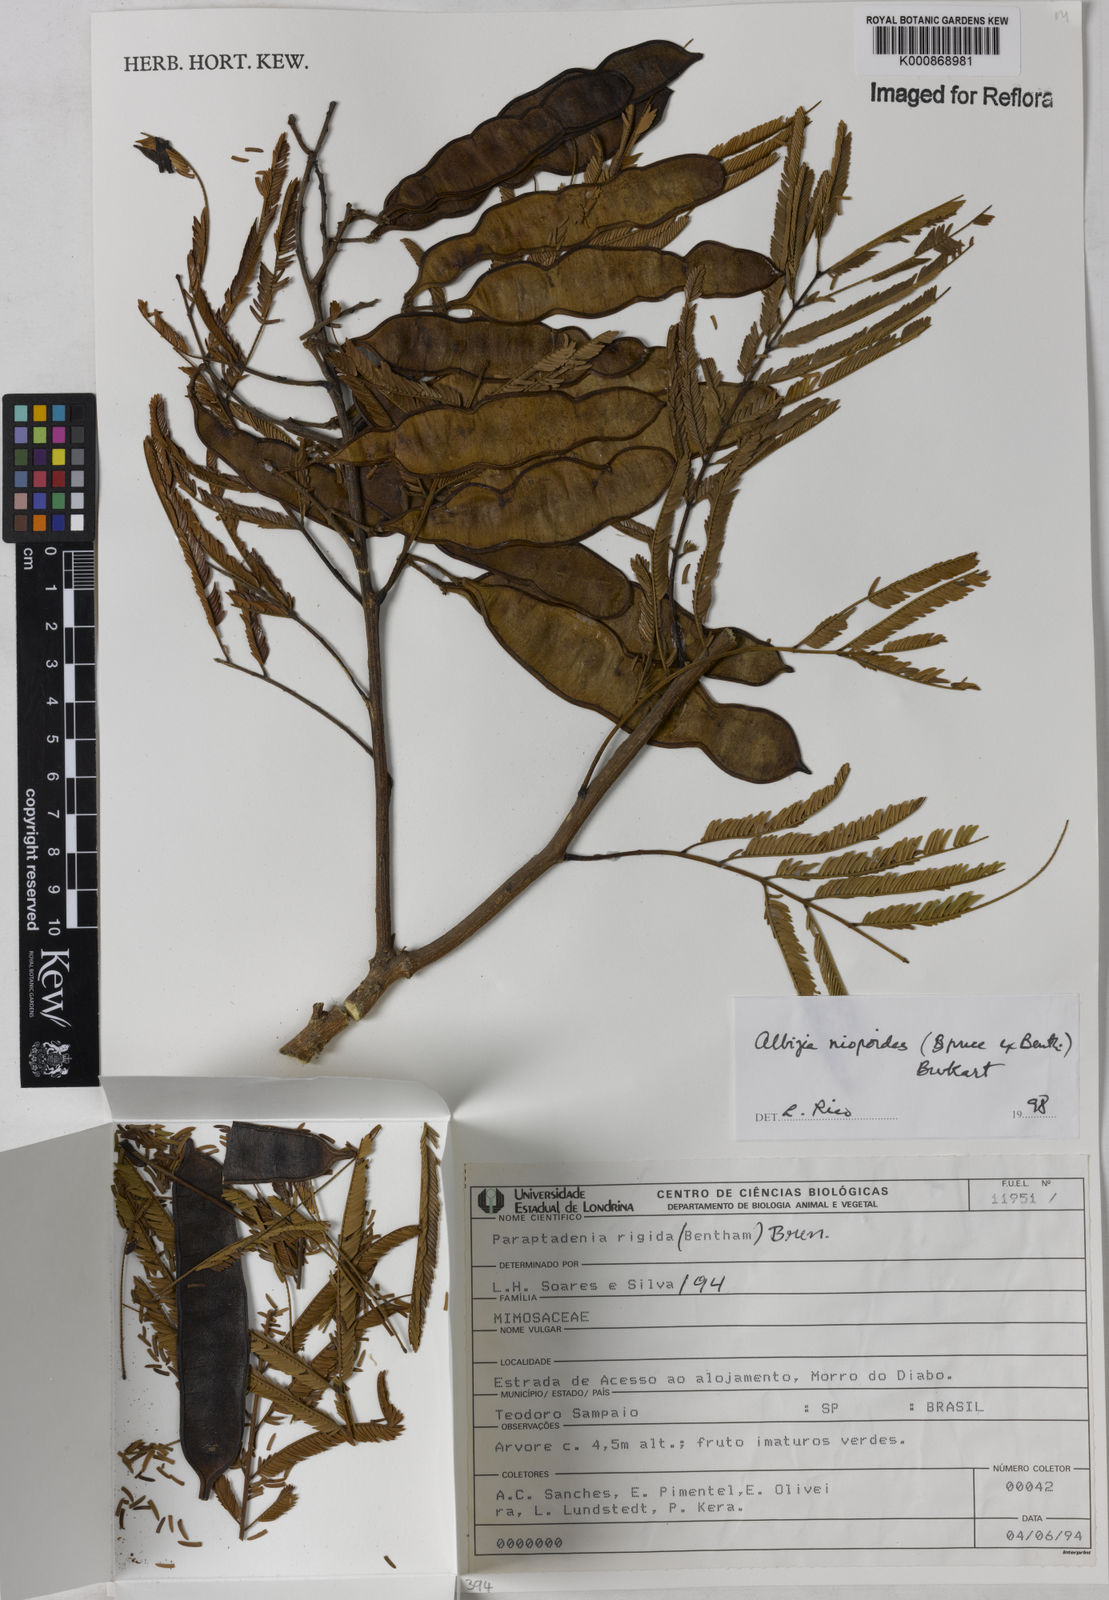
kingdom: Plantae
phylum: Tracheophyta
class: Magnoliopsida
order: Fabales
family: Fabaceae
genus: Albizia
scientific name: Albizia niopoides
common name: Silk tree
